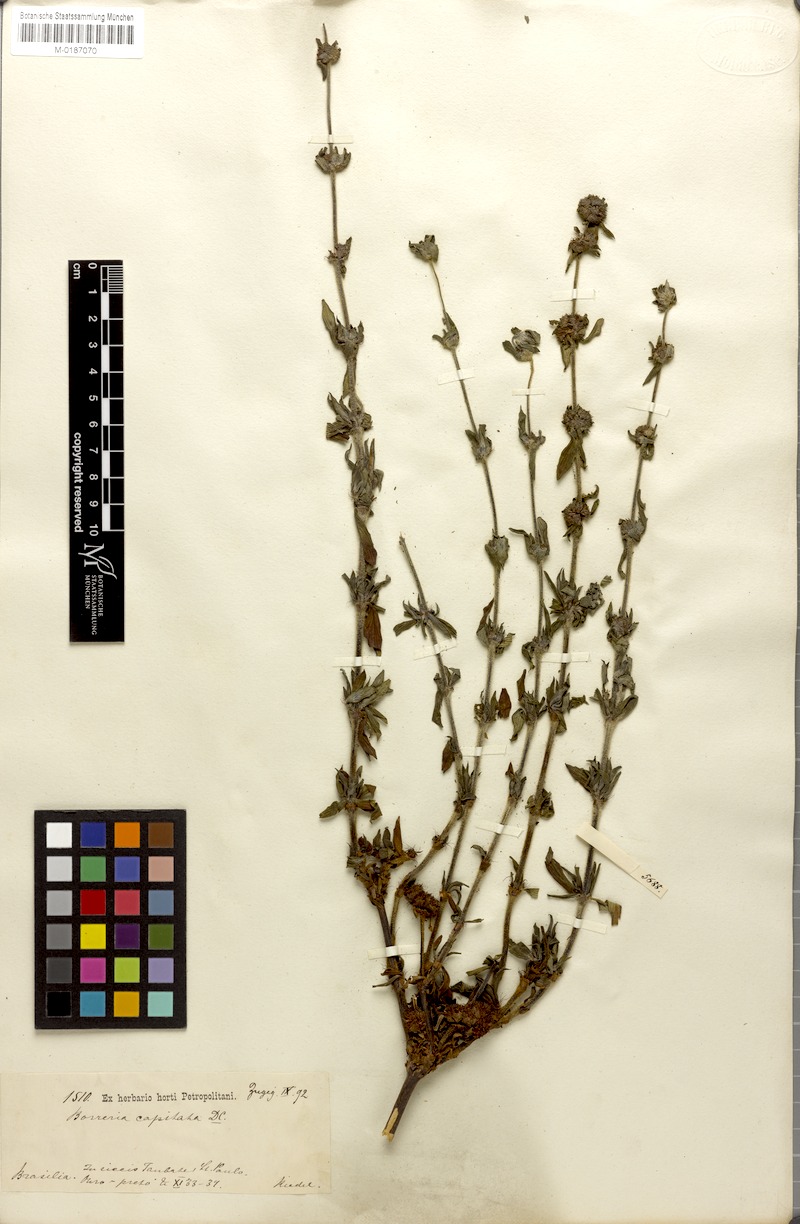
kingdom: Plantae
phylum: Tracheophyta
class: Magnoliopsida
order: Gentianales
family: Rubiaceae
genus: Spermacoce
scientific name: Spermacoce capitata
